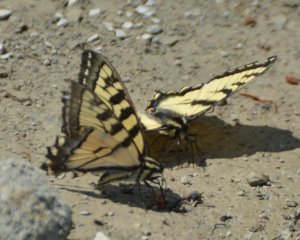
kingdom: Animalia
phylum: Arthropoda
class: Insecta
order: Lepidoptera
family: Papilionidae
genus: Pterourus
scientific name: Pterourus canadensis
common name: Canadian Tiger Swallowtail
